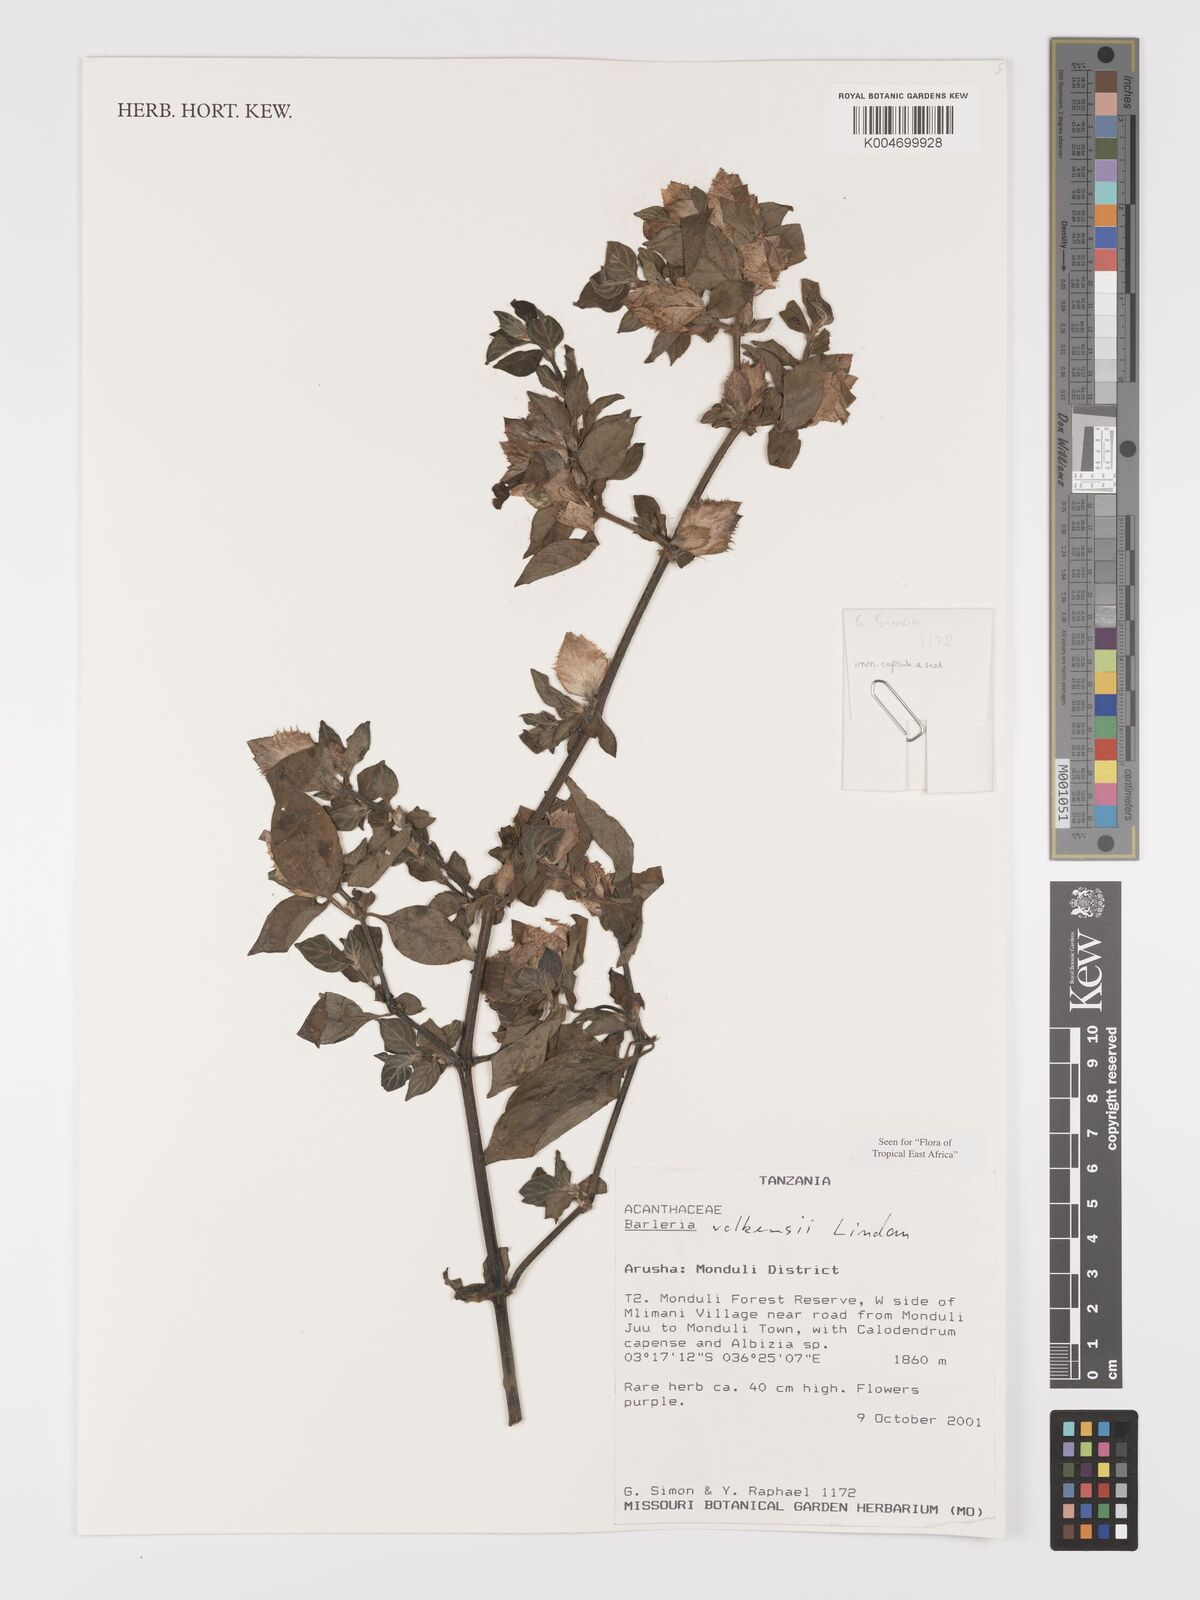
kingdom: Plantae
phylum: Tracheophyta
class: Magnoliopsida
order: Lamiales
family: Acanthaceae
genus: Barleria
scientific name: Barleria volkensii
